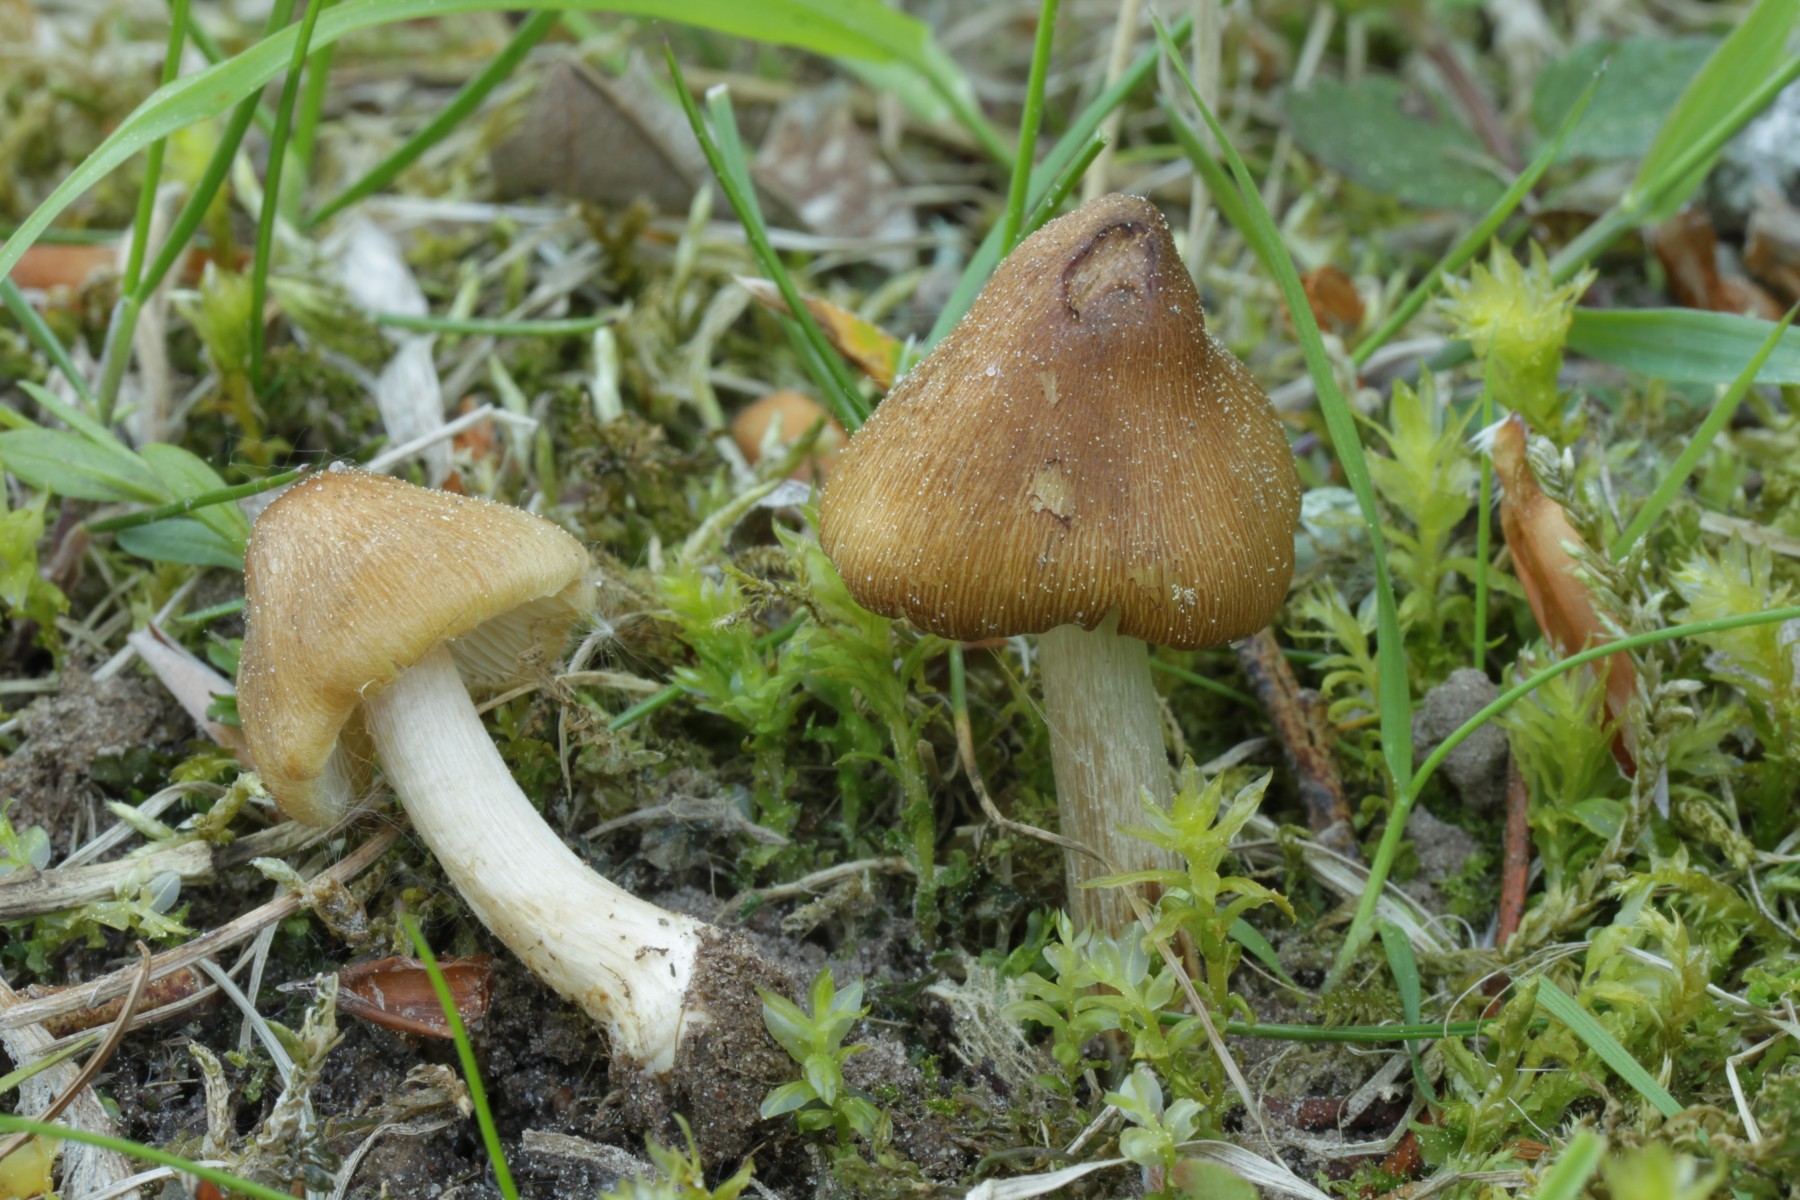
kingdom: Fungi
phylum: Basidiomycota
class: Agaricomycetes
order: Agaricales
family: Inocybaceae
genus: Pseudosperma
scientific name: Pseudosperma flavellum
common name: gul trævlhat
